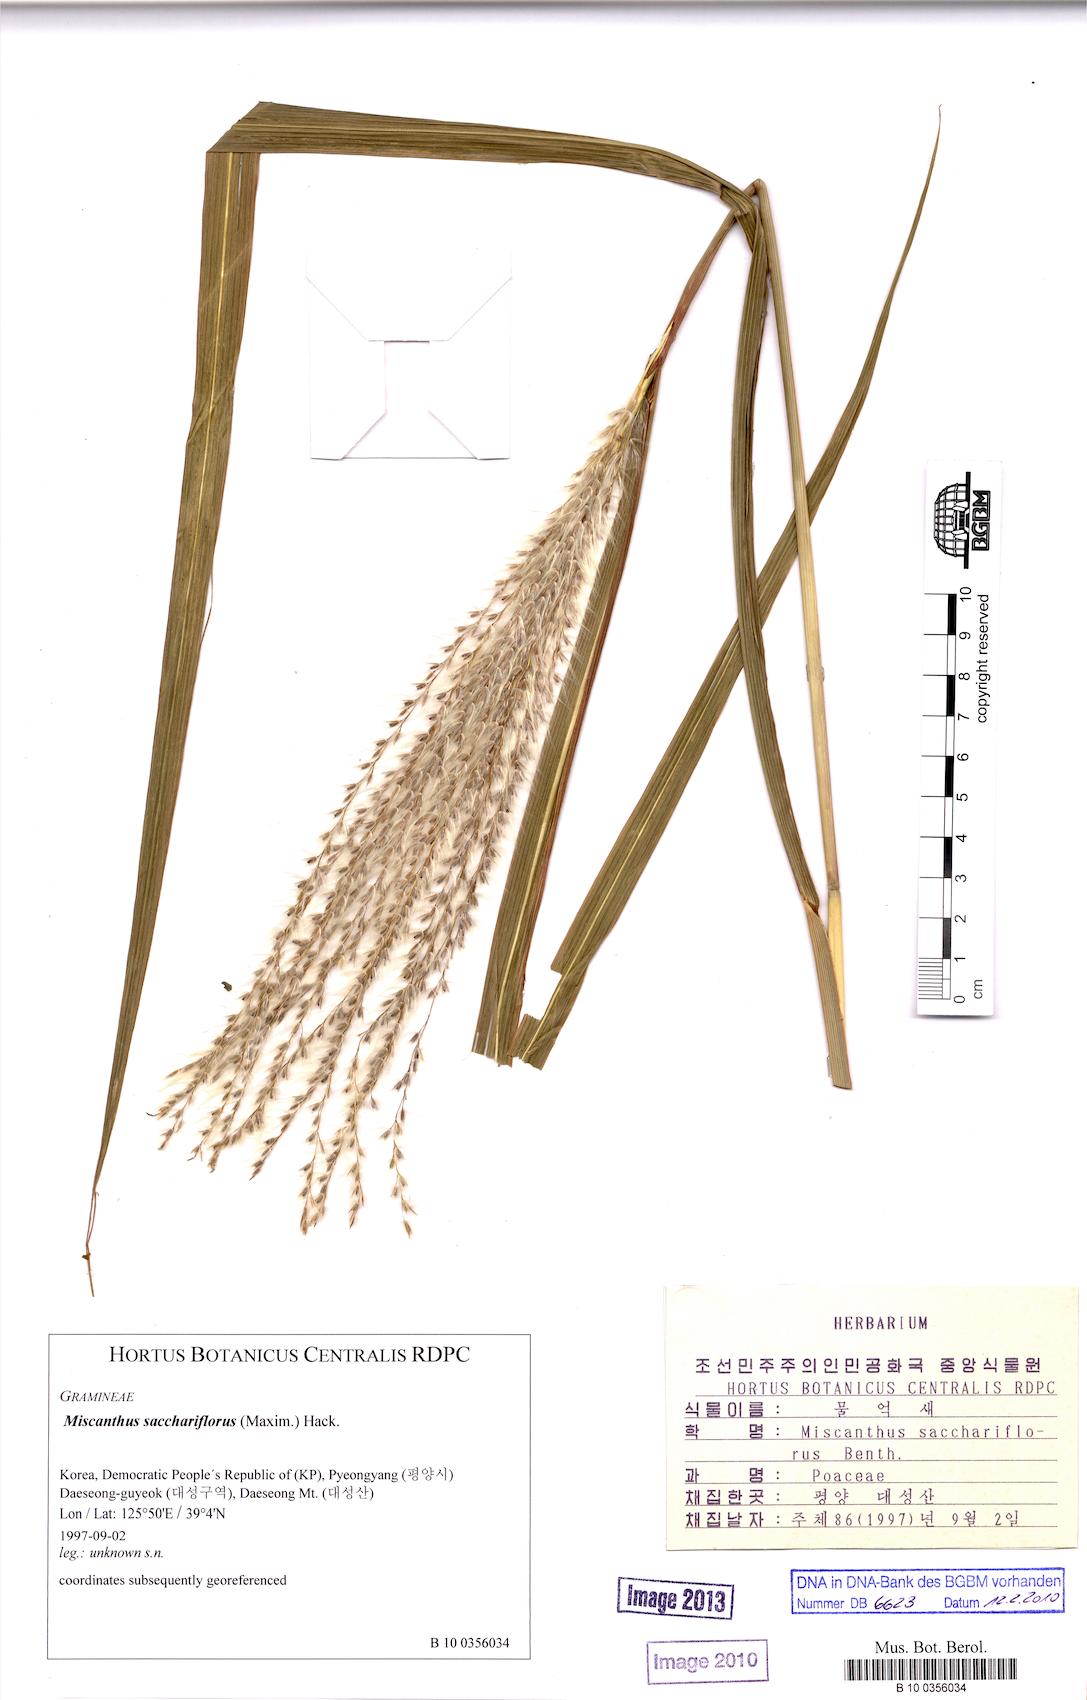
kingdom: Plantae
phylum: Tracheophyta
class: Liliopsida
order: Poales
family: Poaceae
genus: Miscanthus
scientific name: Miscanthus sacchariflorus
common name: Amur silver grass
